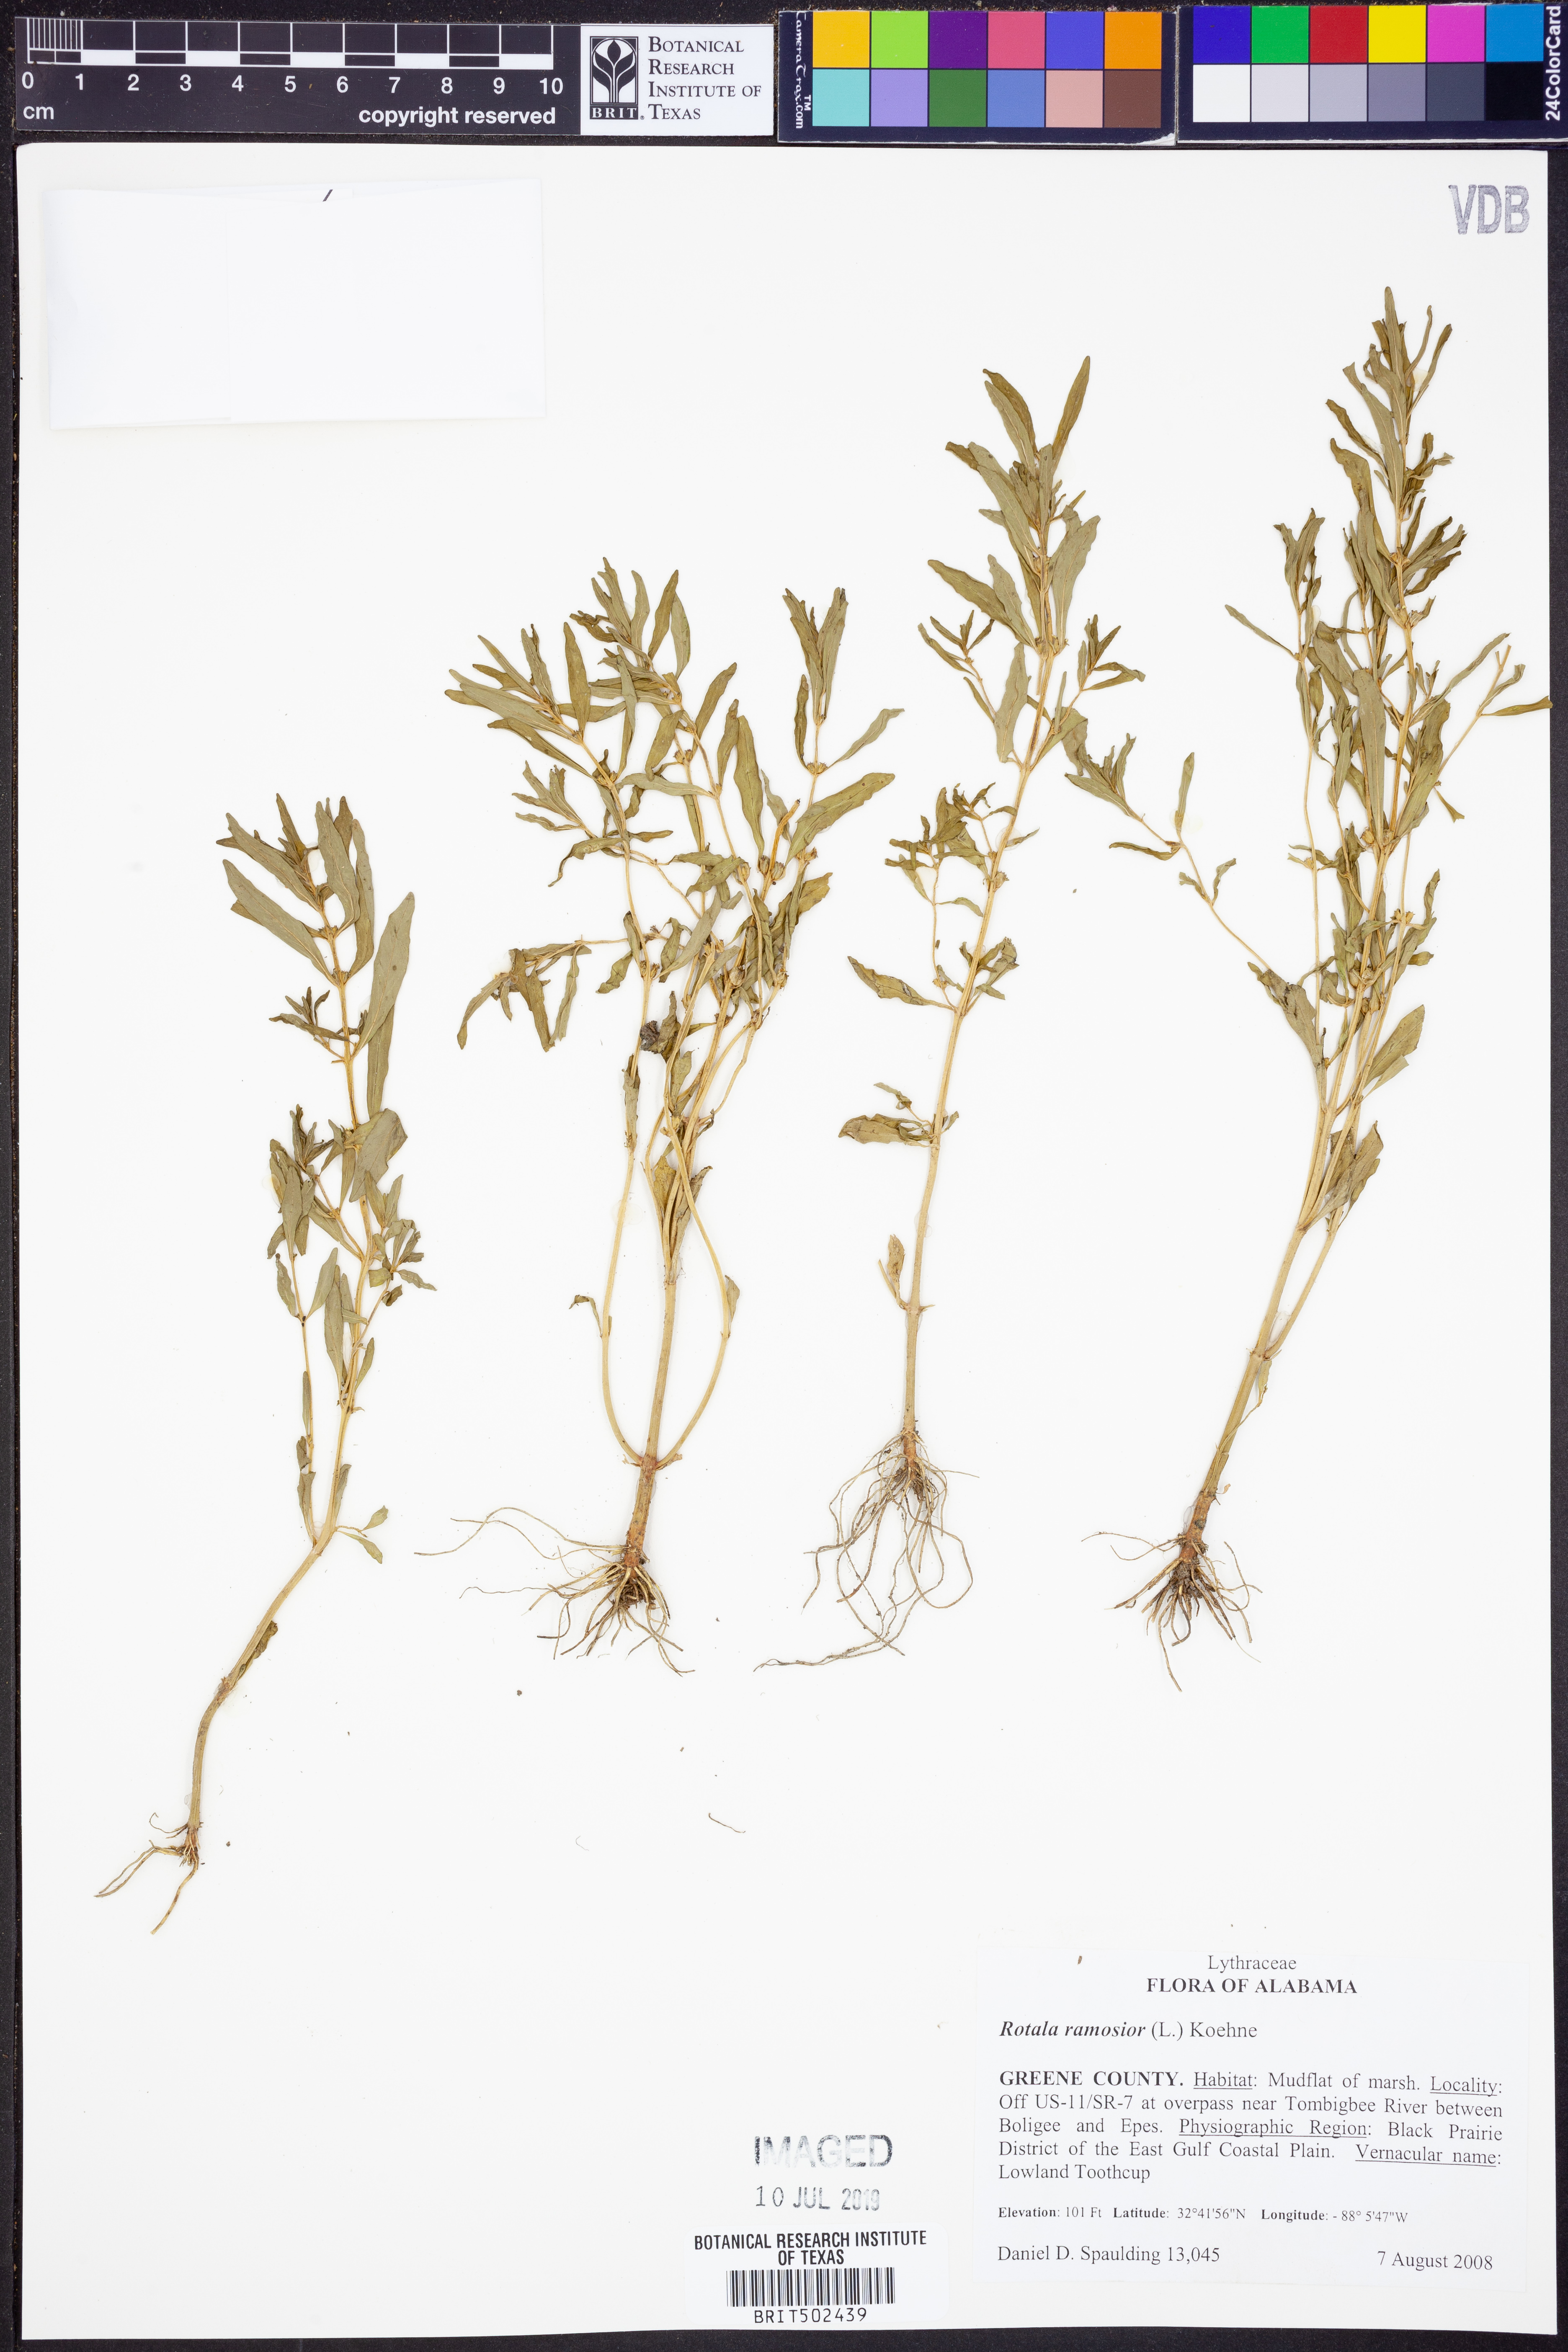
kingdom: Plantae
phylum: Tracheophyta
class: Magnoliopsida
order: Myrtales
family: Lythraceae
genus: Rotala
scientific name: Rotala ramosior
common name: Lowland rotala
